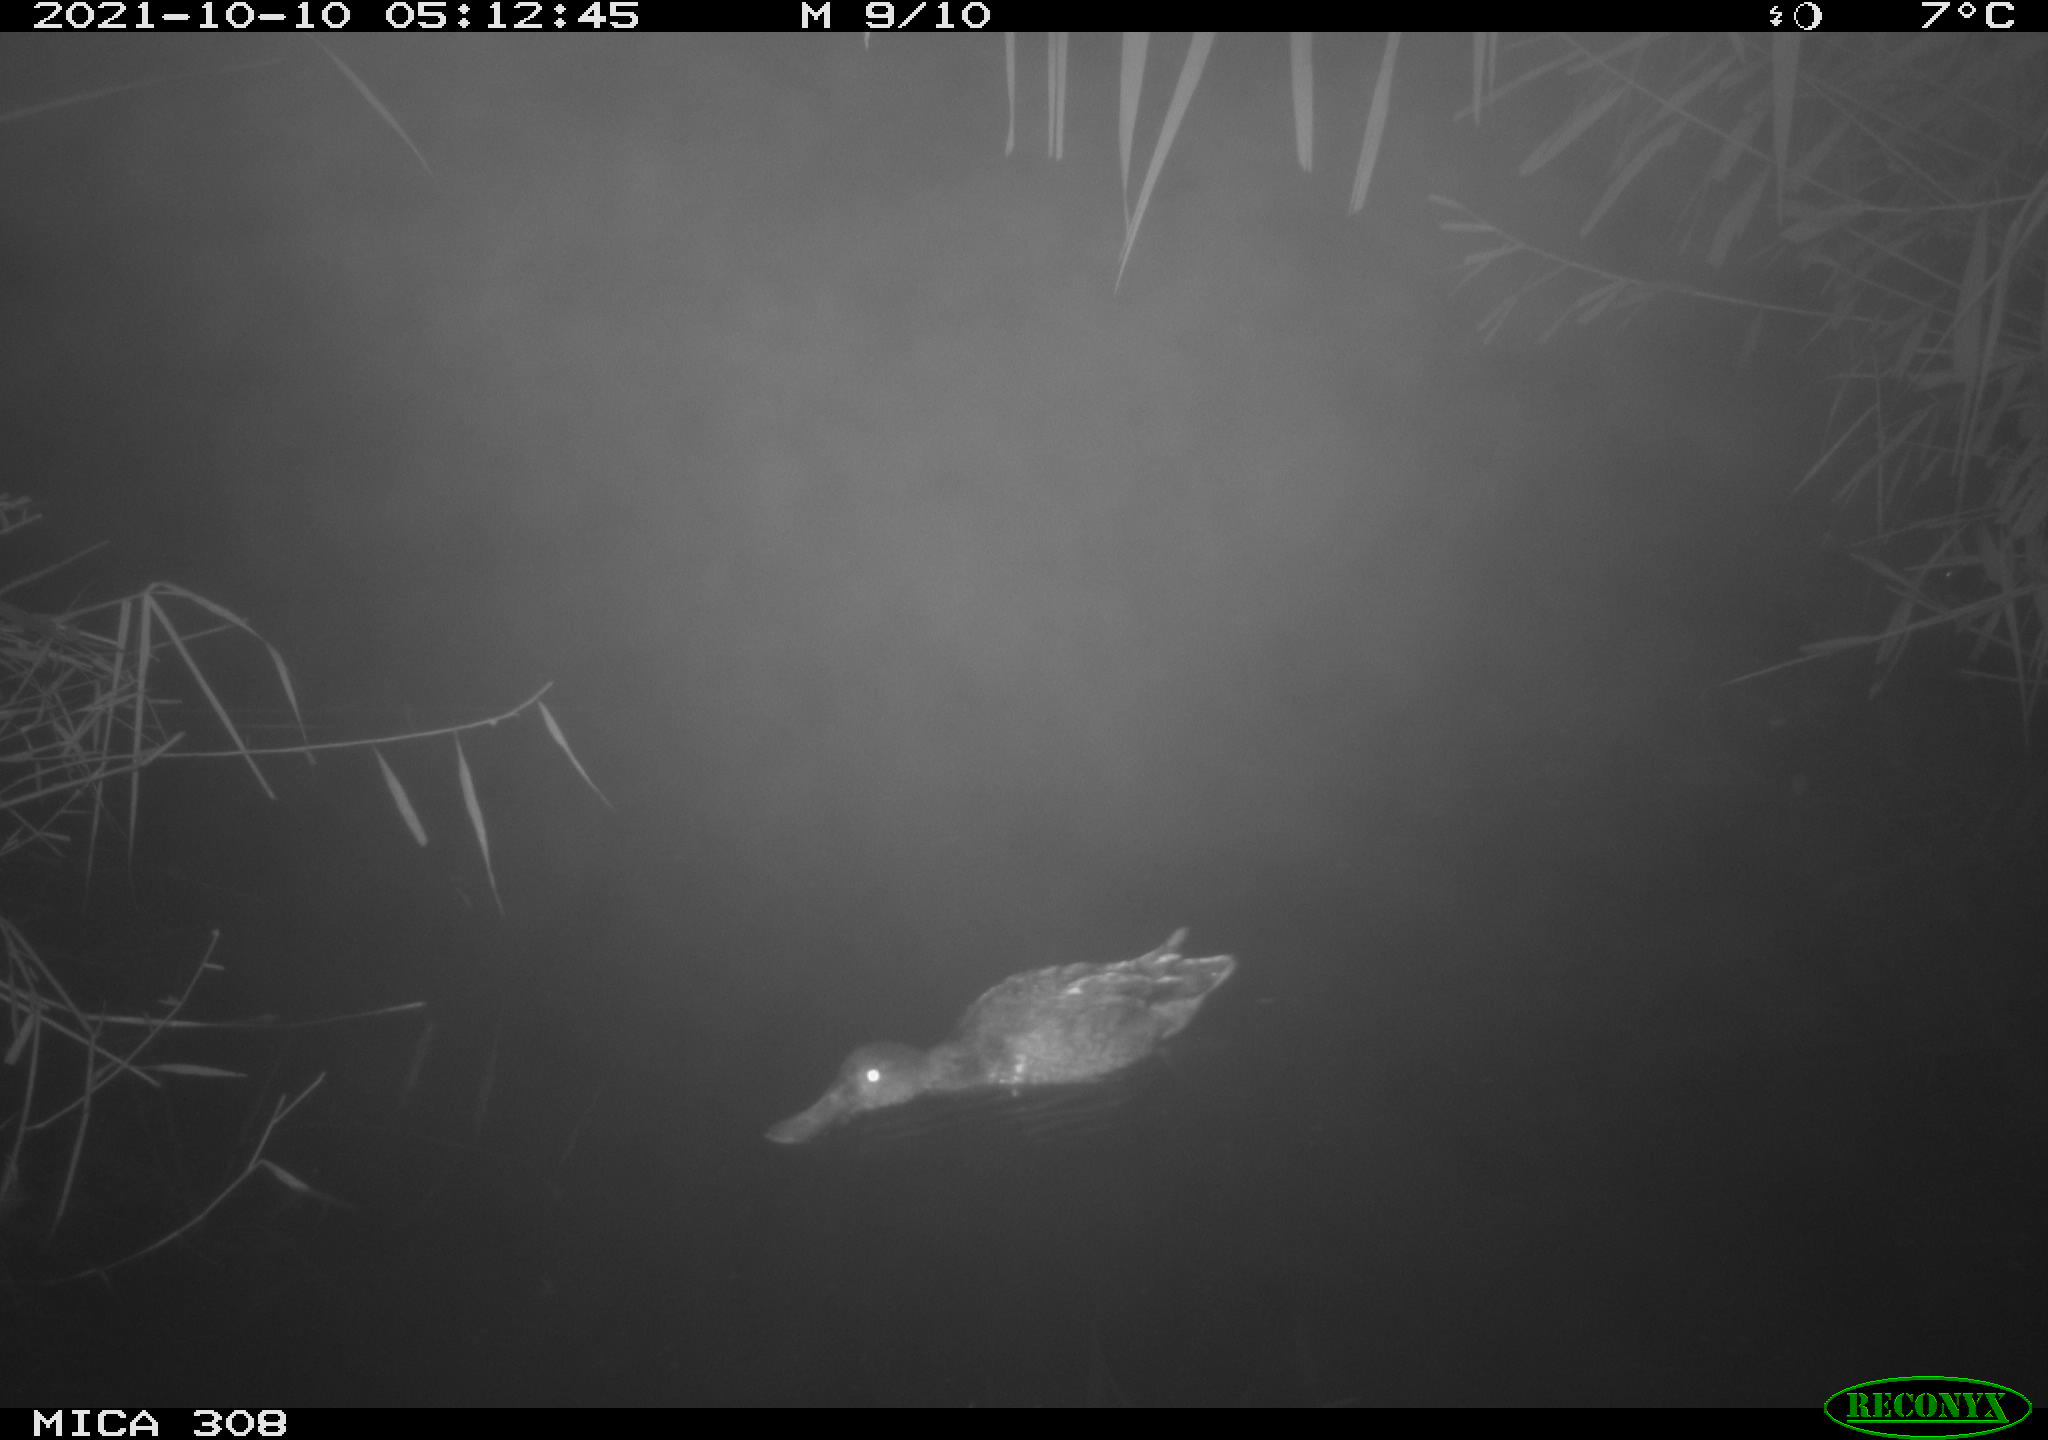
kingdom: Animalia
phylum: Chordata
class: Aves
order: Anseriformes
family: Anatidae
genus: Spatula
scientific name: Spatula clypeata
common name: Northern shoveler
